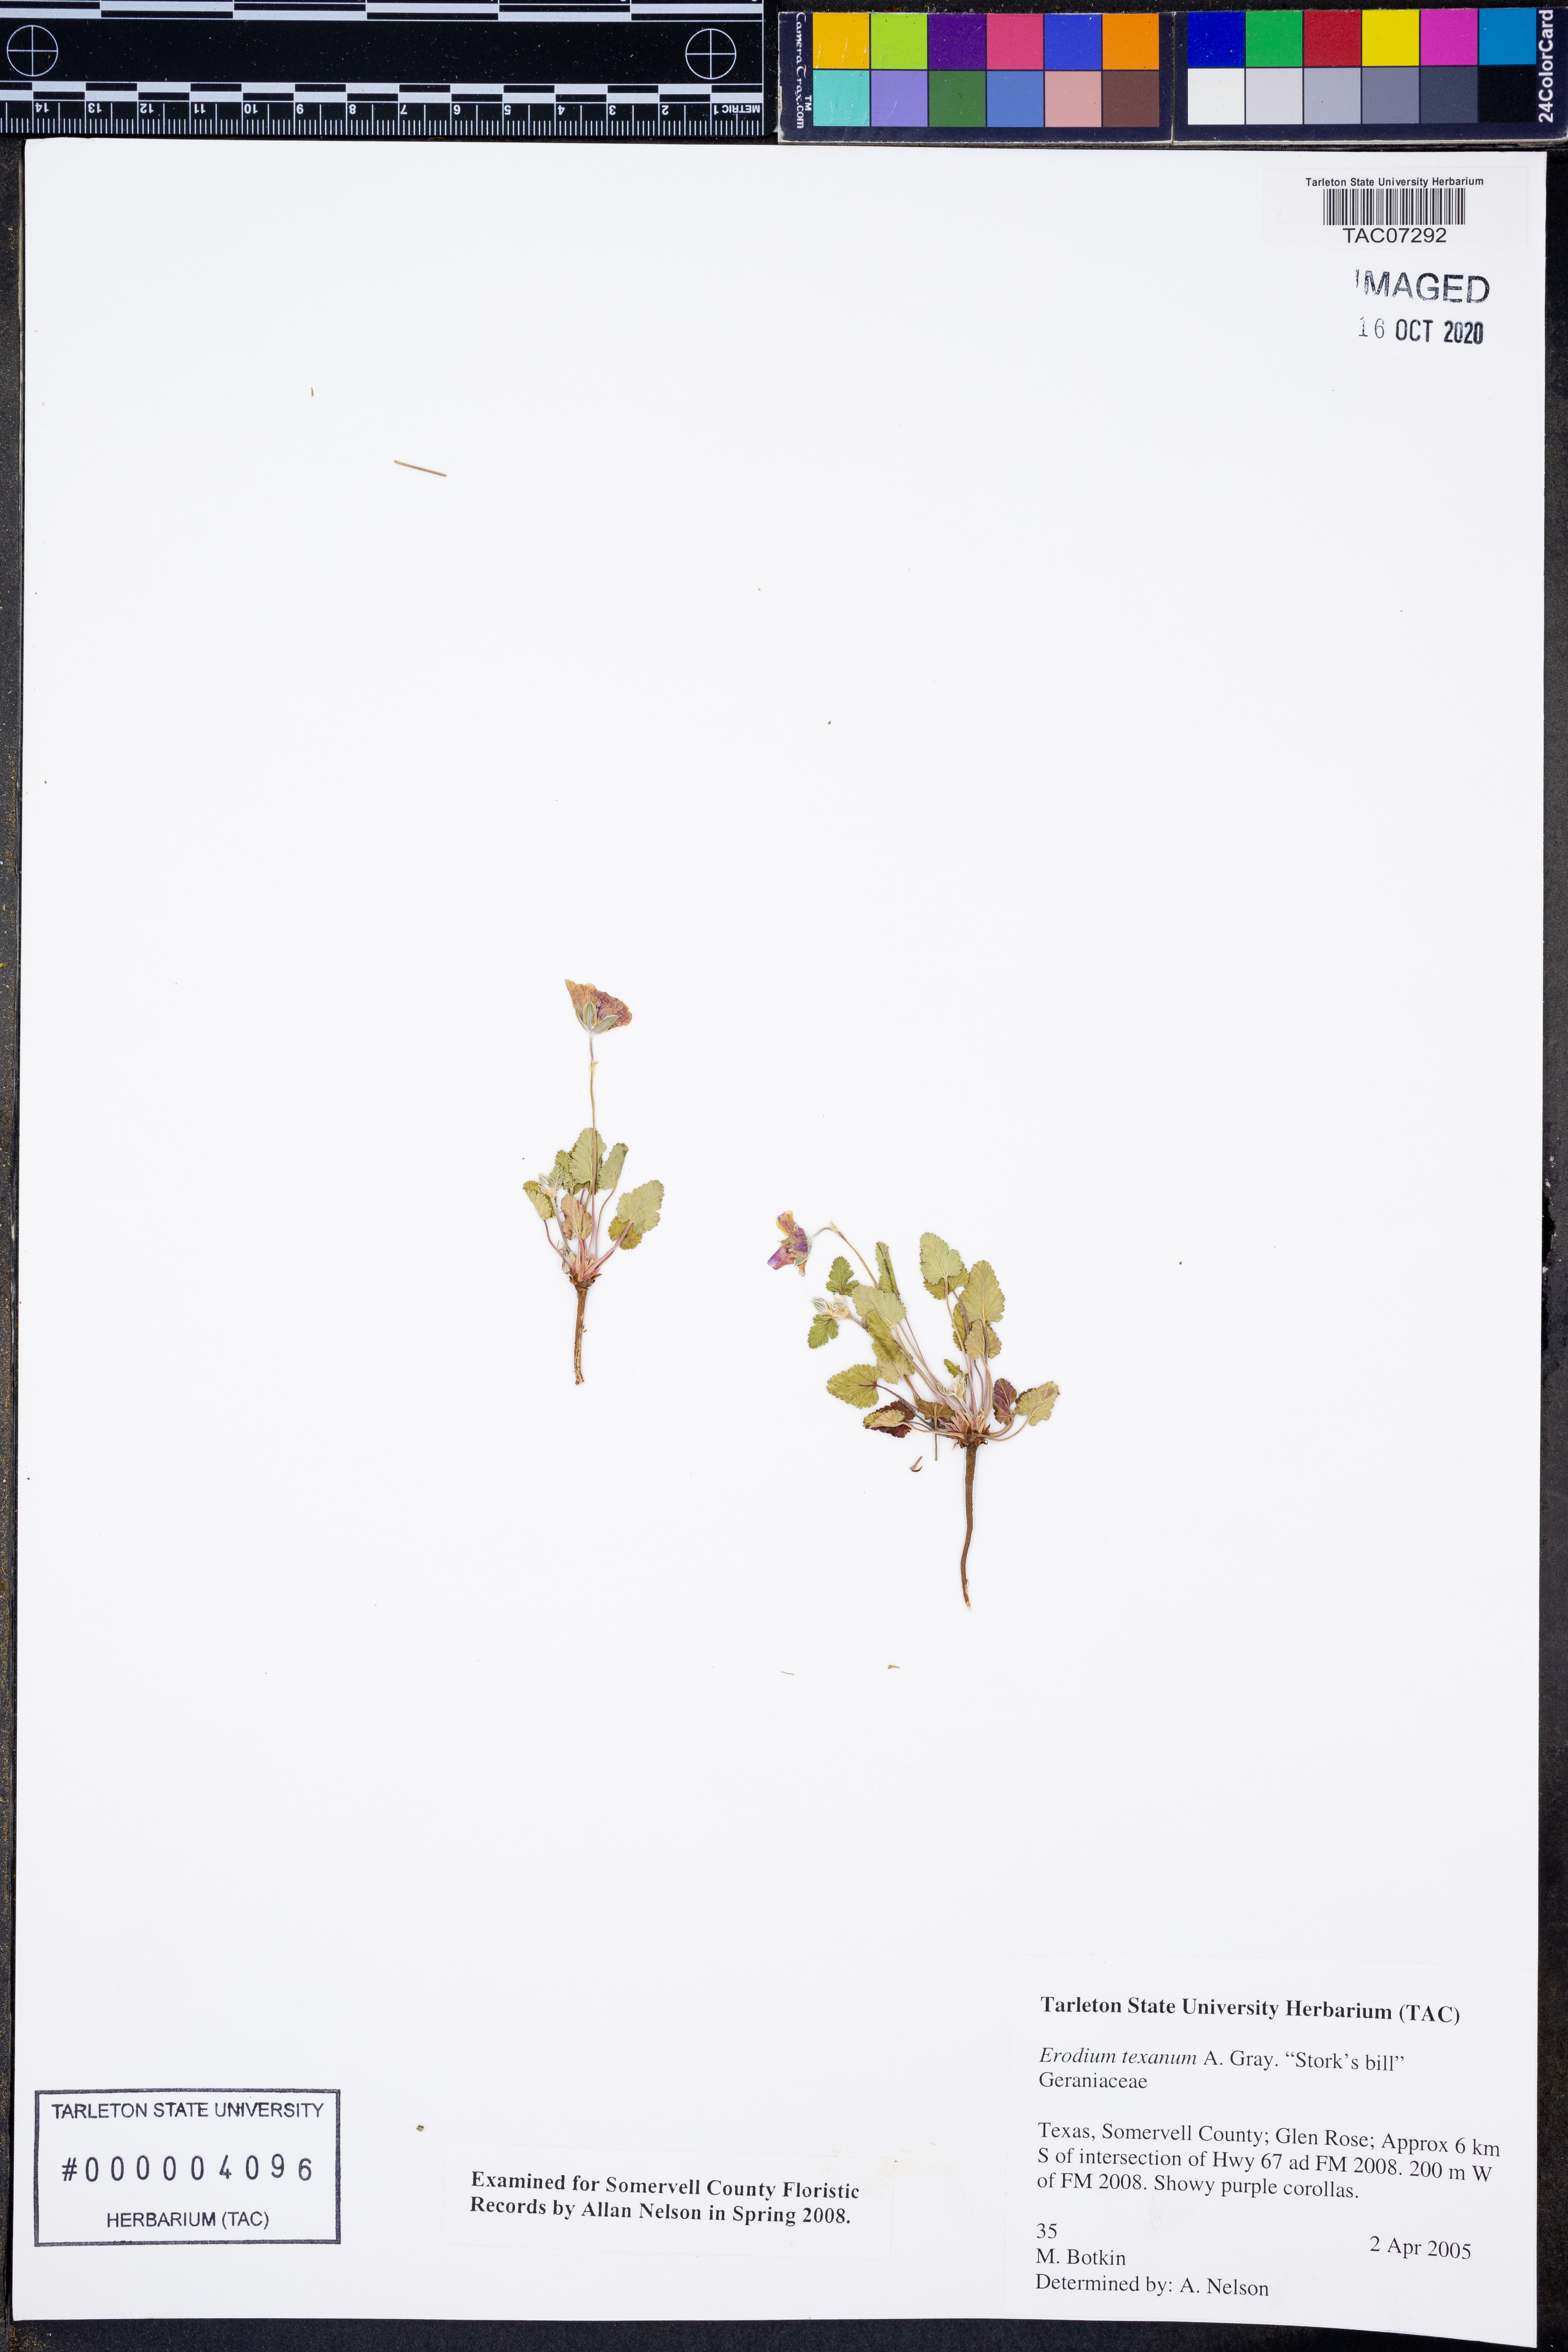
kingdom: Plantae
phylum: Tracheophyta
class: Magnoliopsida
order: Geraniales
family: Geraniaceae
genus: Erodium
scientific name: Erodium texanum
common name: Texas stork's-bill
